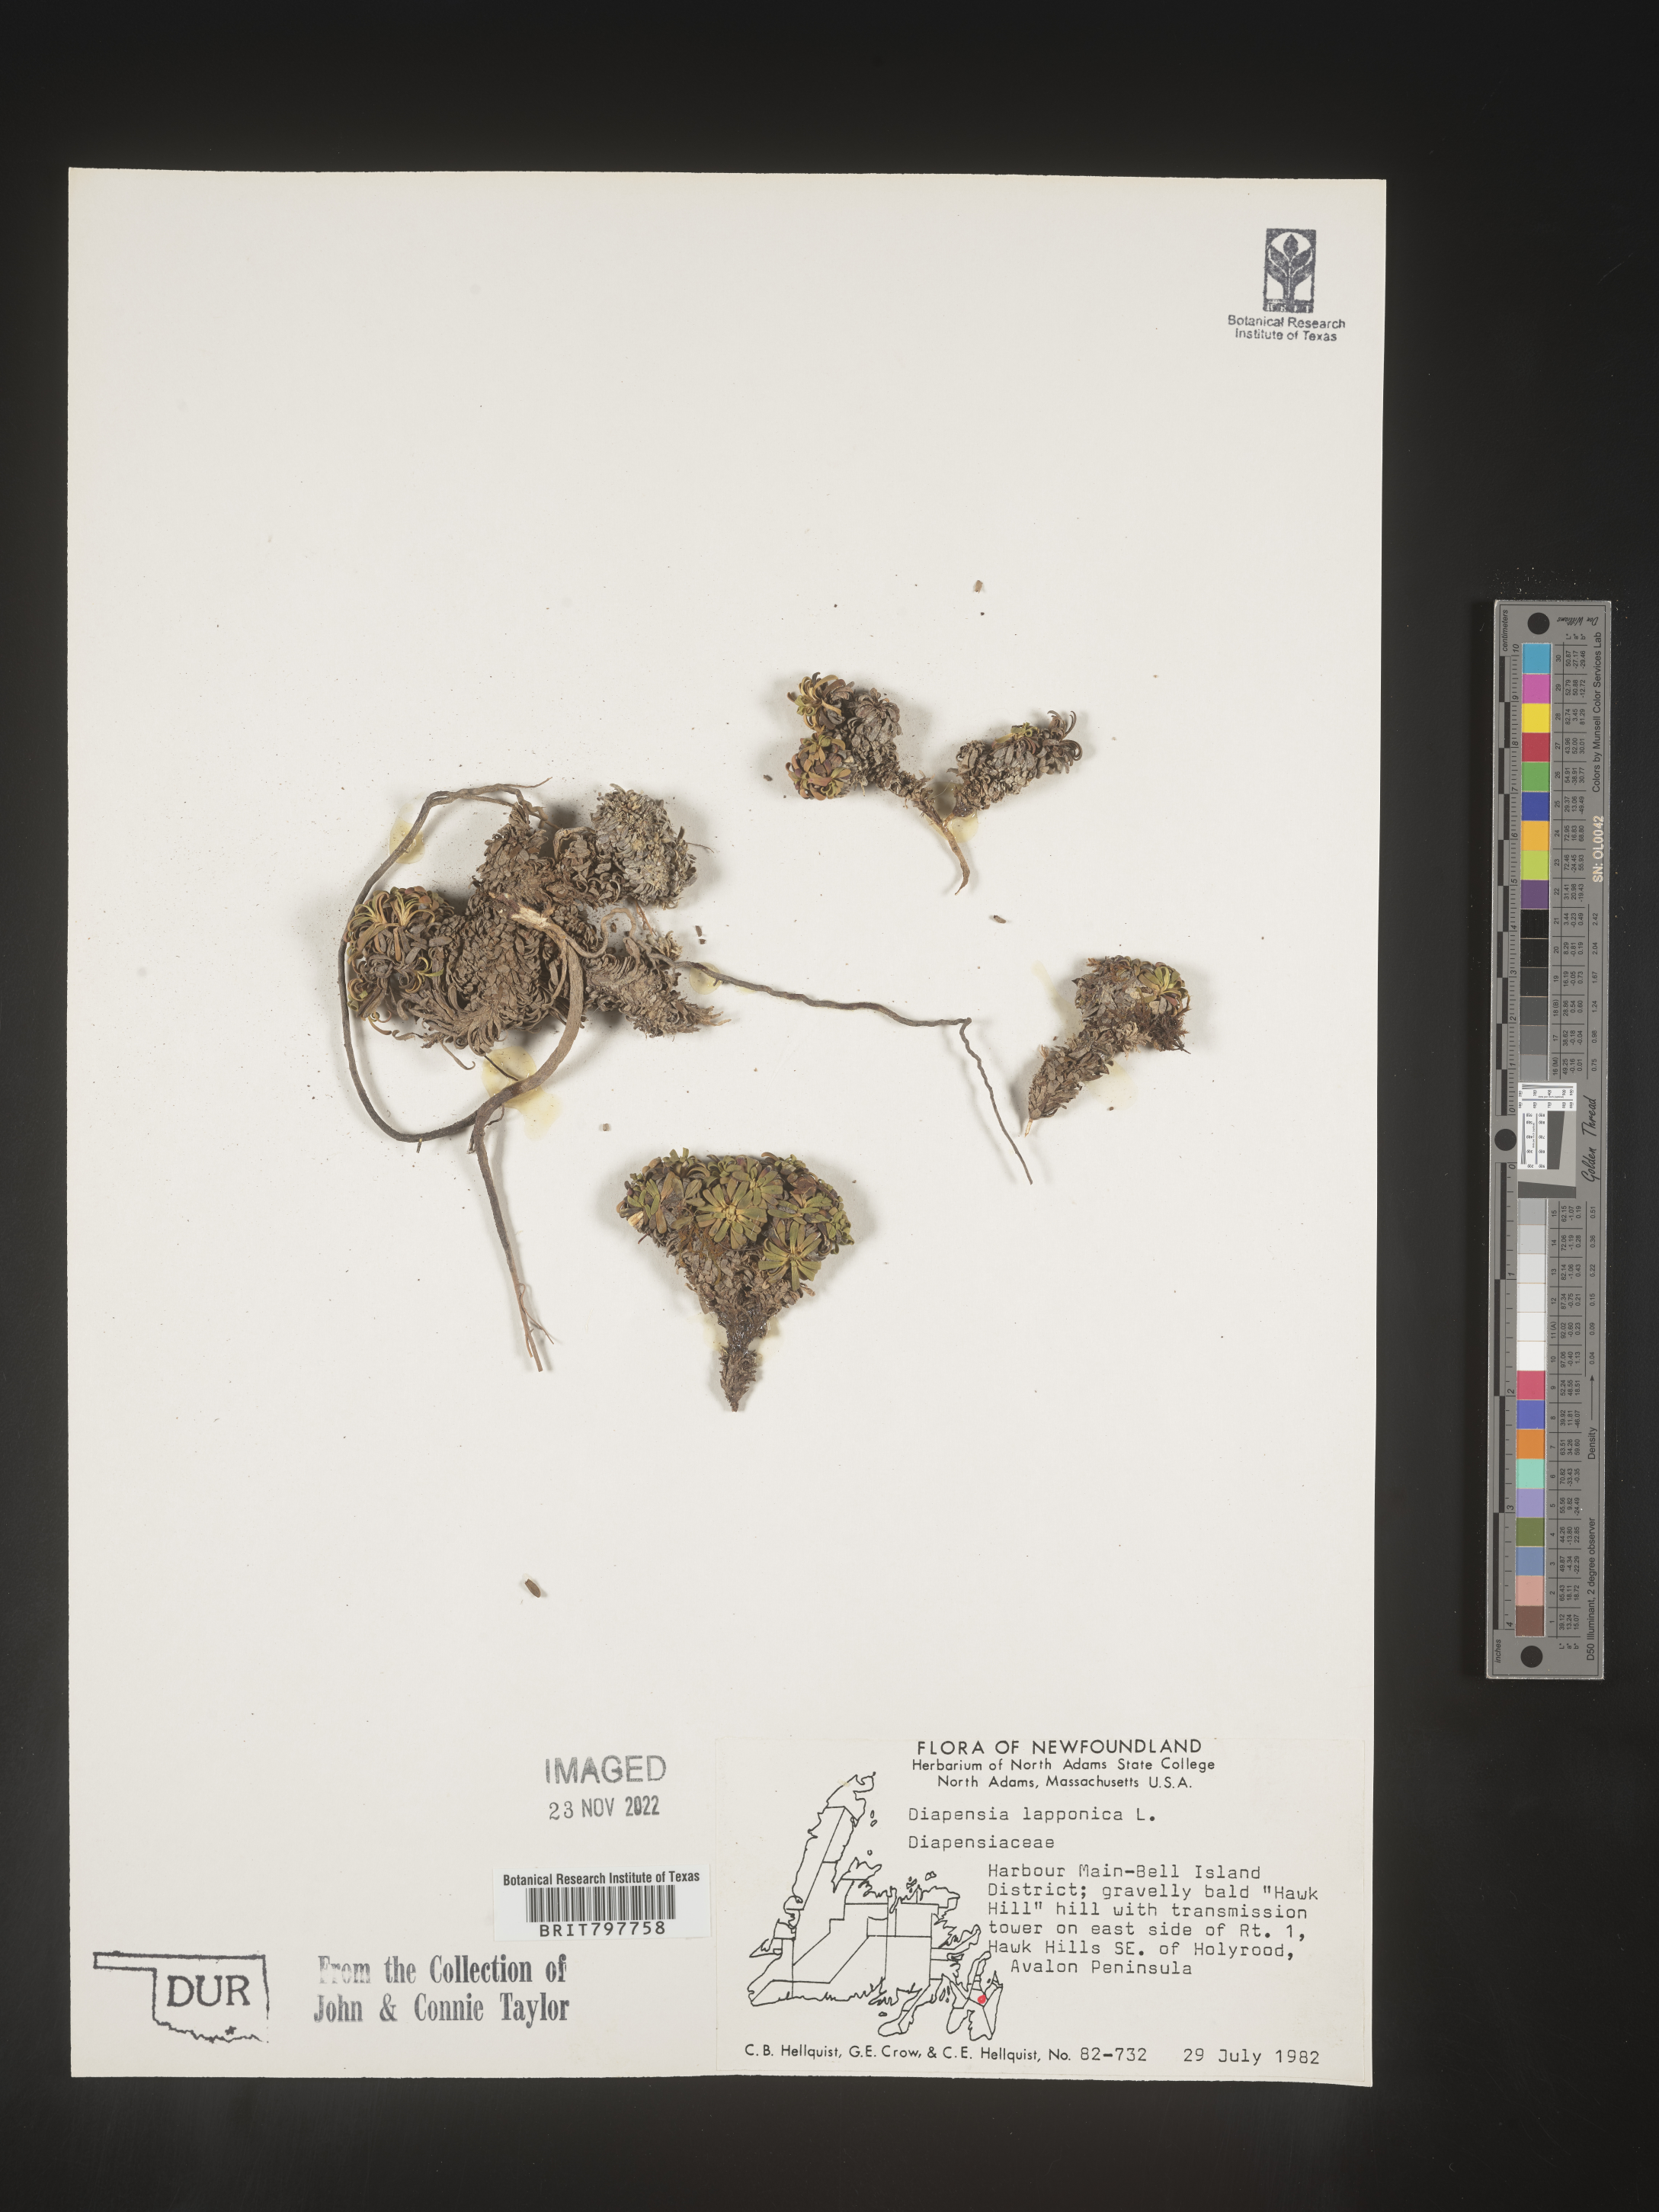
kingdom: Plantae
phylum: Tracheophyta
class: Magnoliopsida
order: Ericales
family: Diapensiaceae
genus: Diapensia
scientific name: Diapensia
